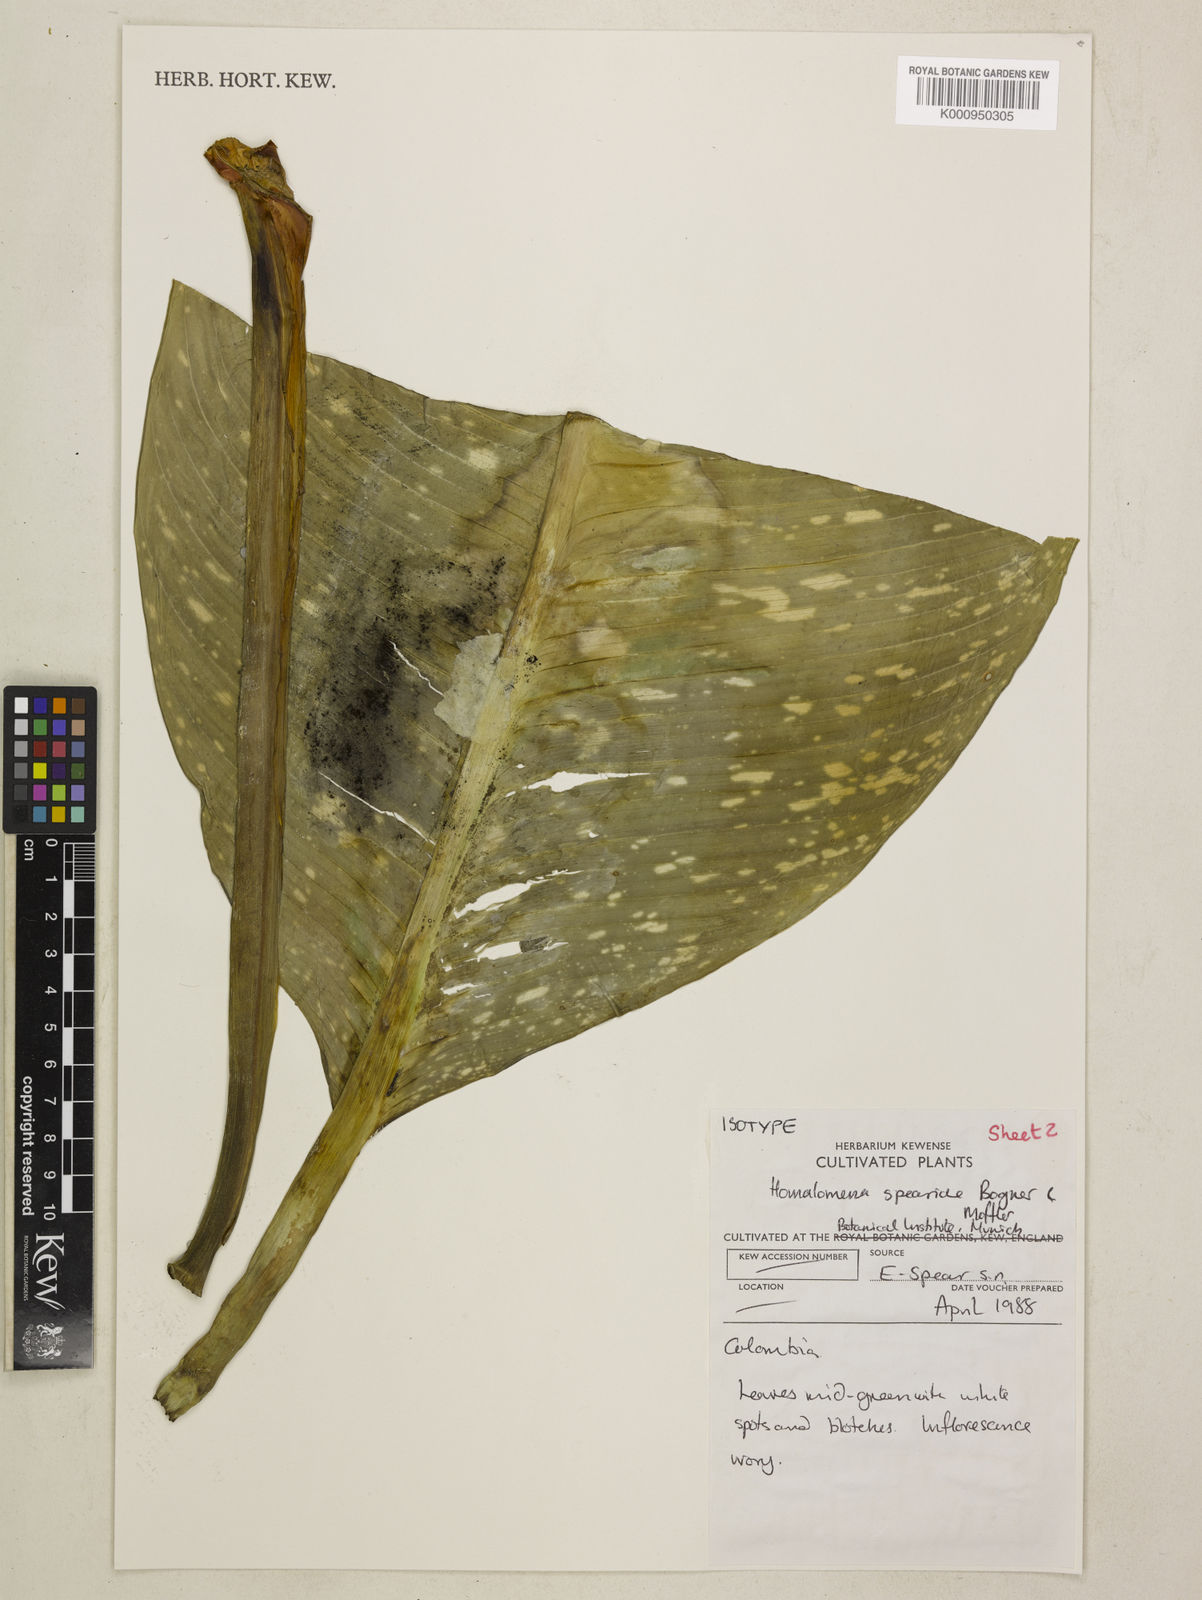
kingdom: Plantae
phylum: Tracheophyta
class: Liliopsida
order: Alismatales
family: Araceae
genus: Adelonema
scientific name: Adelonema speariae
